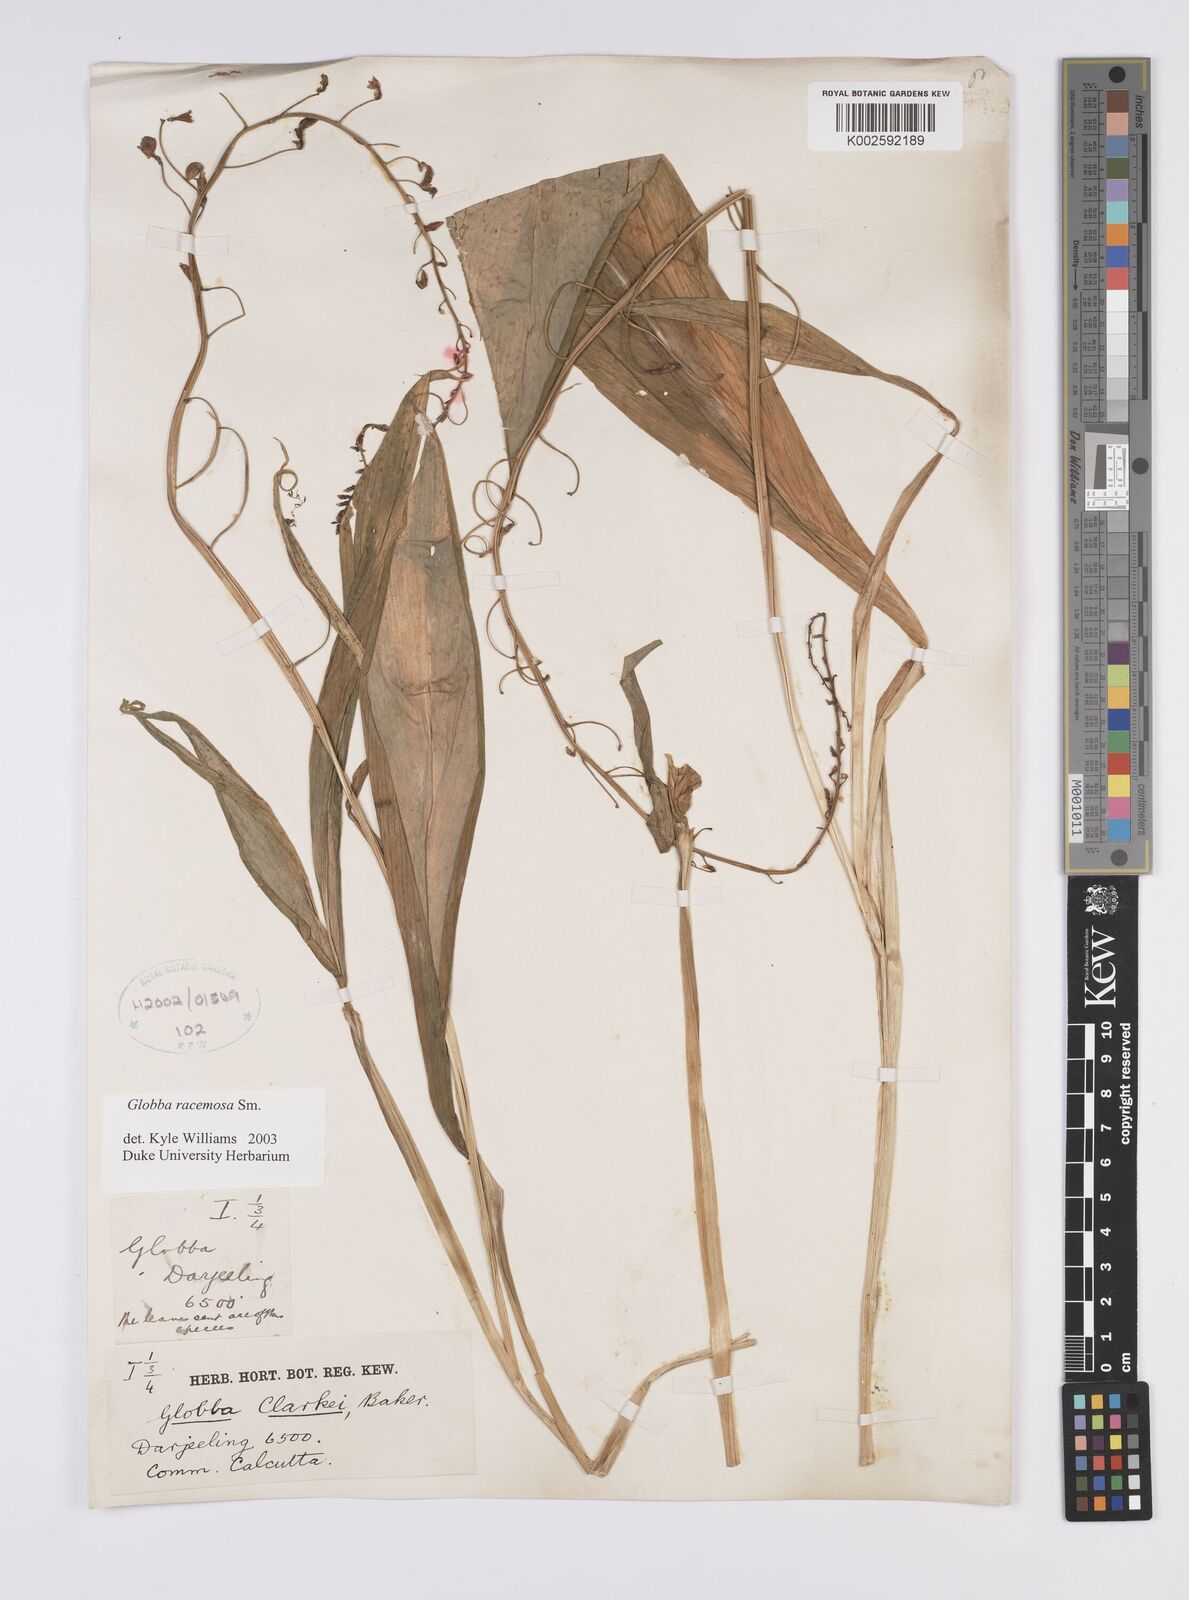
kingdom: Plantae
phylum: Tracheophyta
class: Liliopsida
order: Zingiberales
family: Zingiberaceae
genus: Globba
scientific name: Globba racemosa
